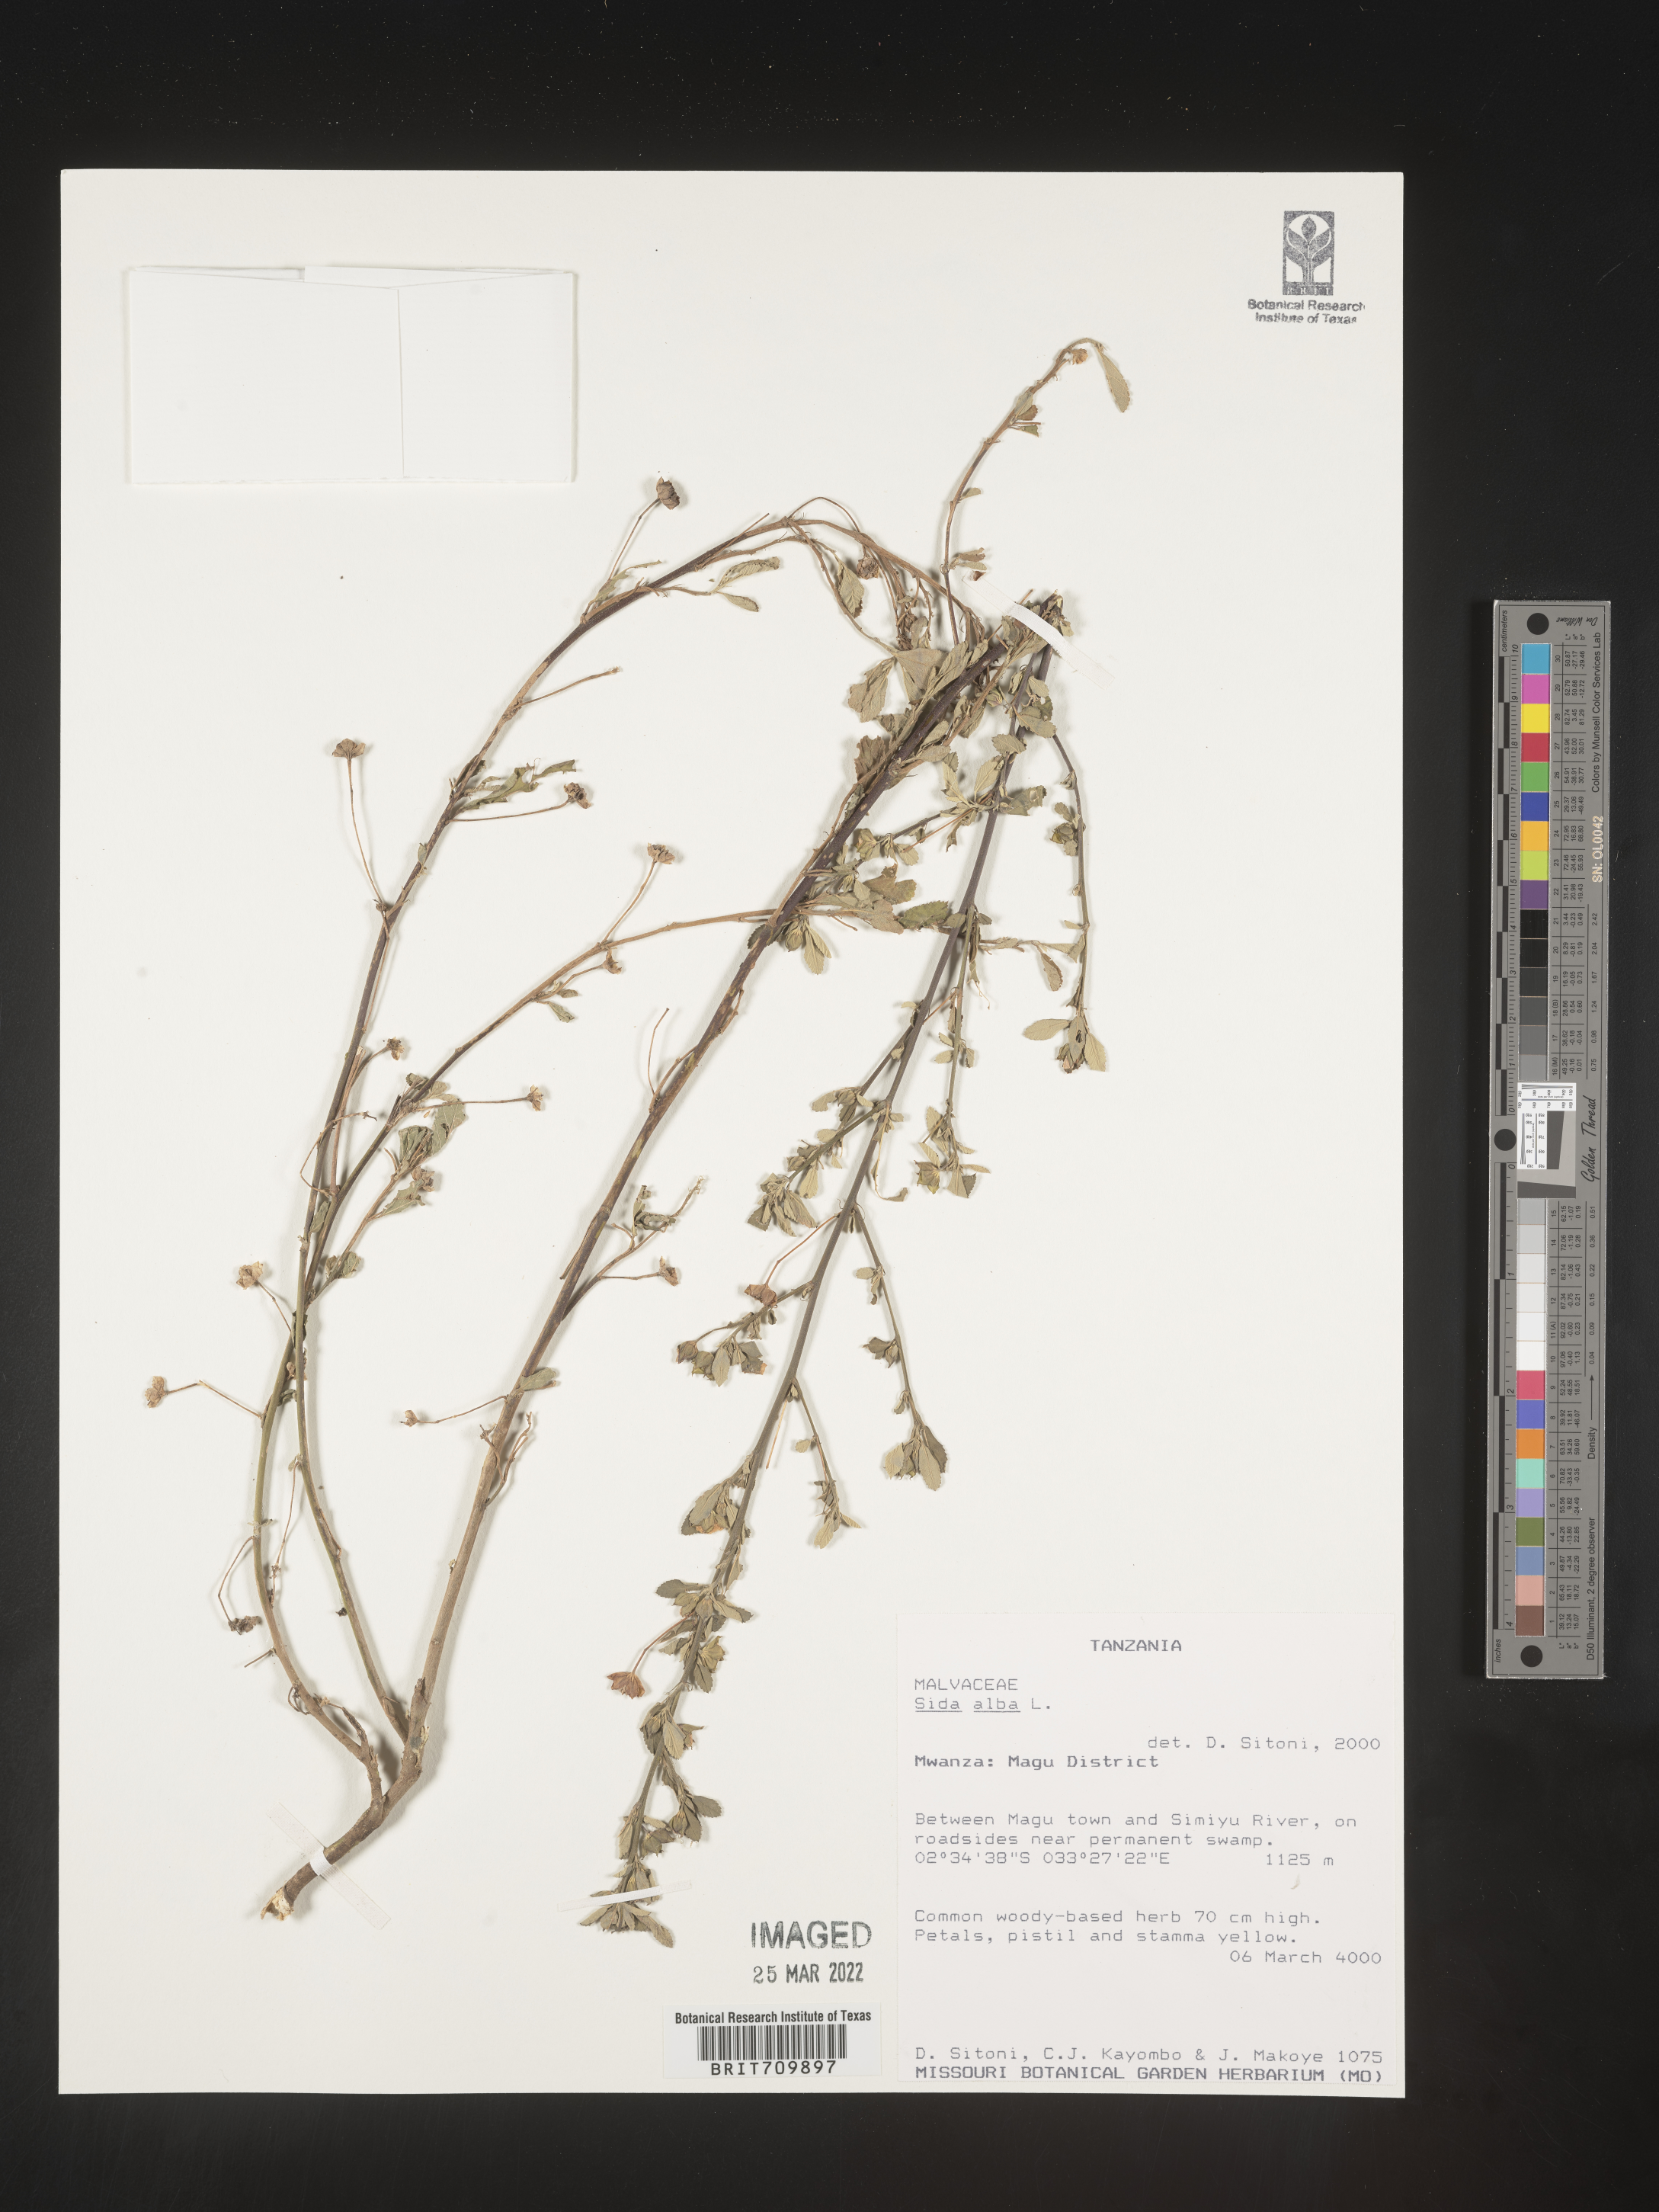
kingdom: Plantae
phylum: Tracheophyta
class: Magnoliopsida
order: Malvales
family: Malvaceae
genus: Sida
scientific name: Sida
